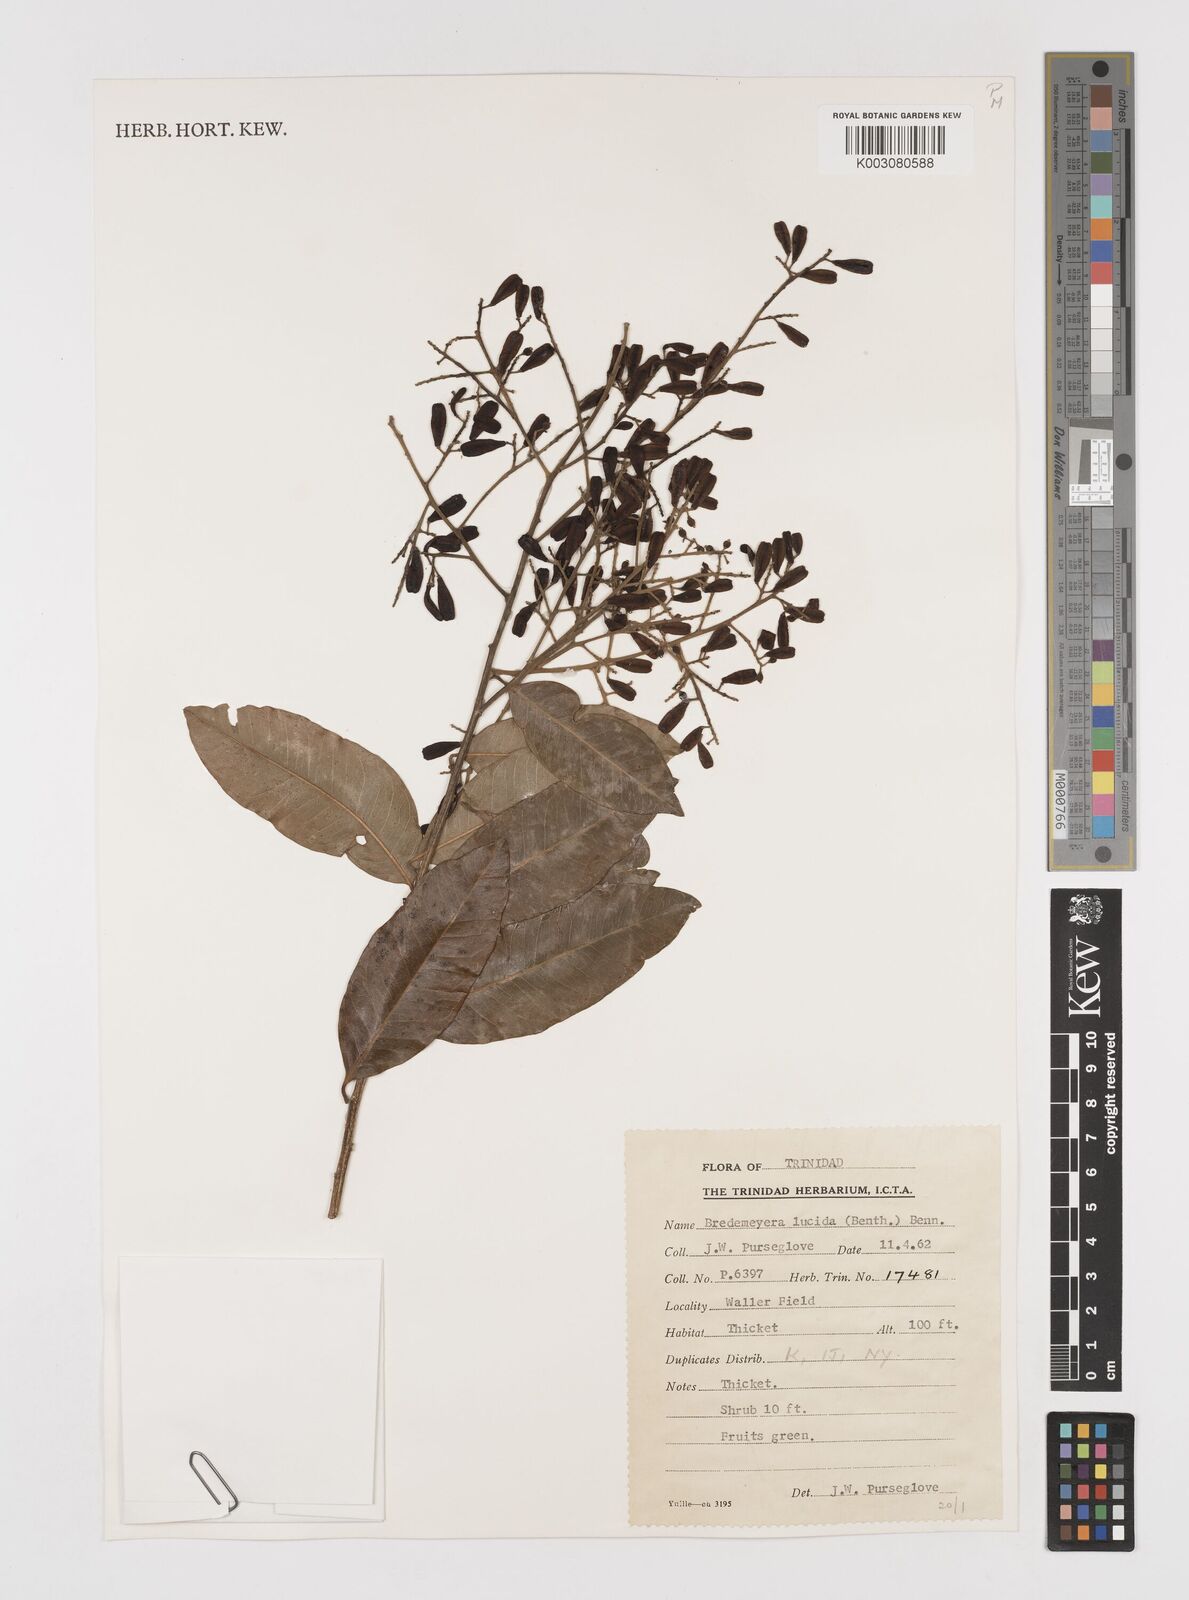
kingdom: Plantae
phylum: Tracheophyta
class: Magnoliopsida
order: Fabales
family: Polygalaceae
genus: Bredemeyera
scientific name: Bredemeyera lucida
